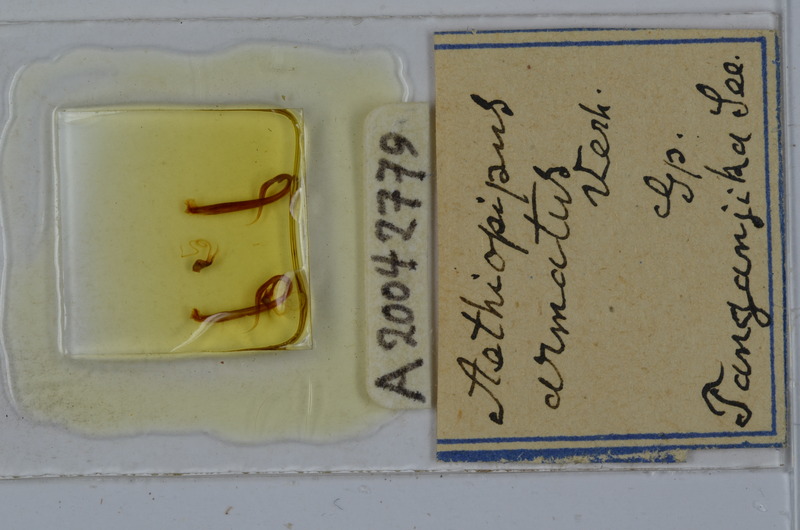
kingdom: Animalia
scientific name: Animalia
